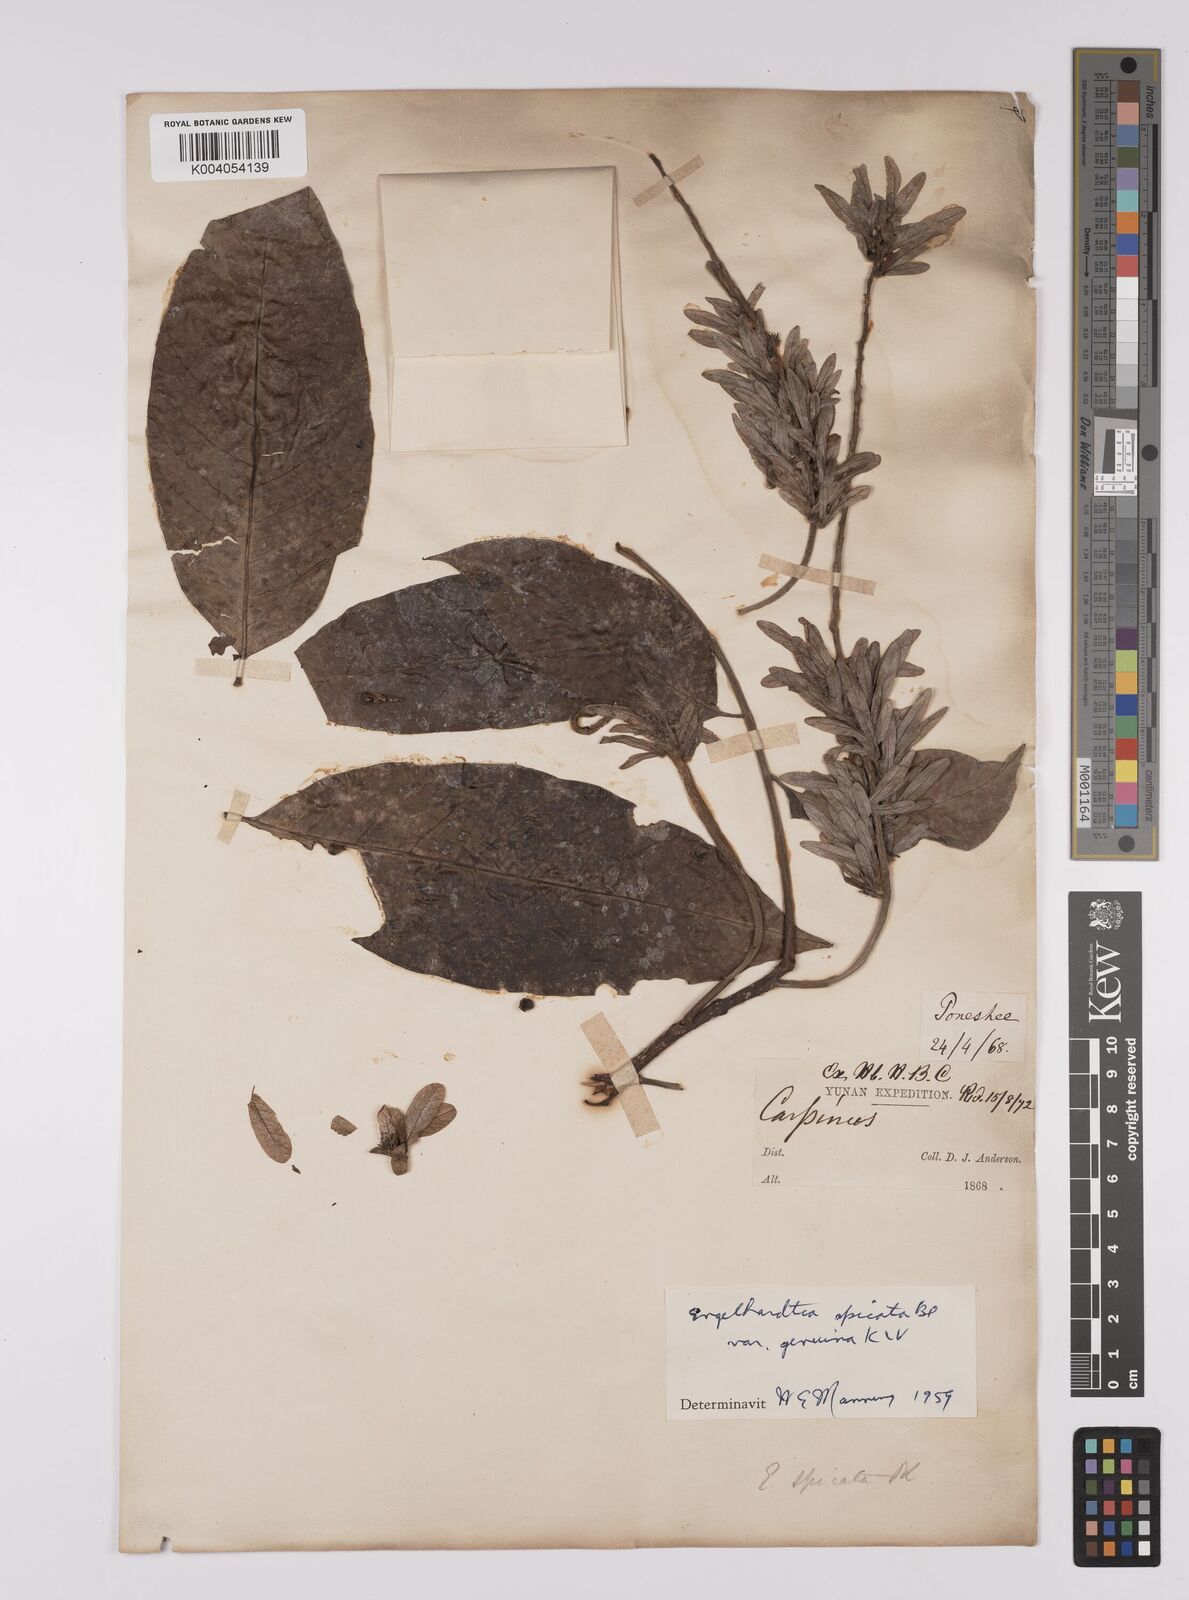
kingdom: Plantae
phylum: Tracheophyta
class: Magnoliopsida
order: Fagales
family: Juglandaceae
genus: Engelhardia
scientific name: Engelhardia spicata
